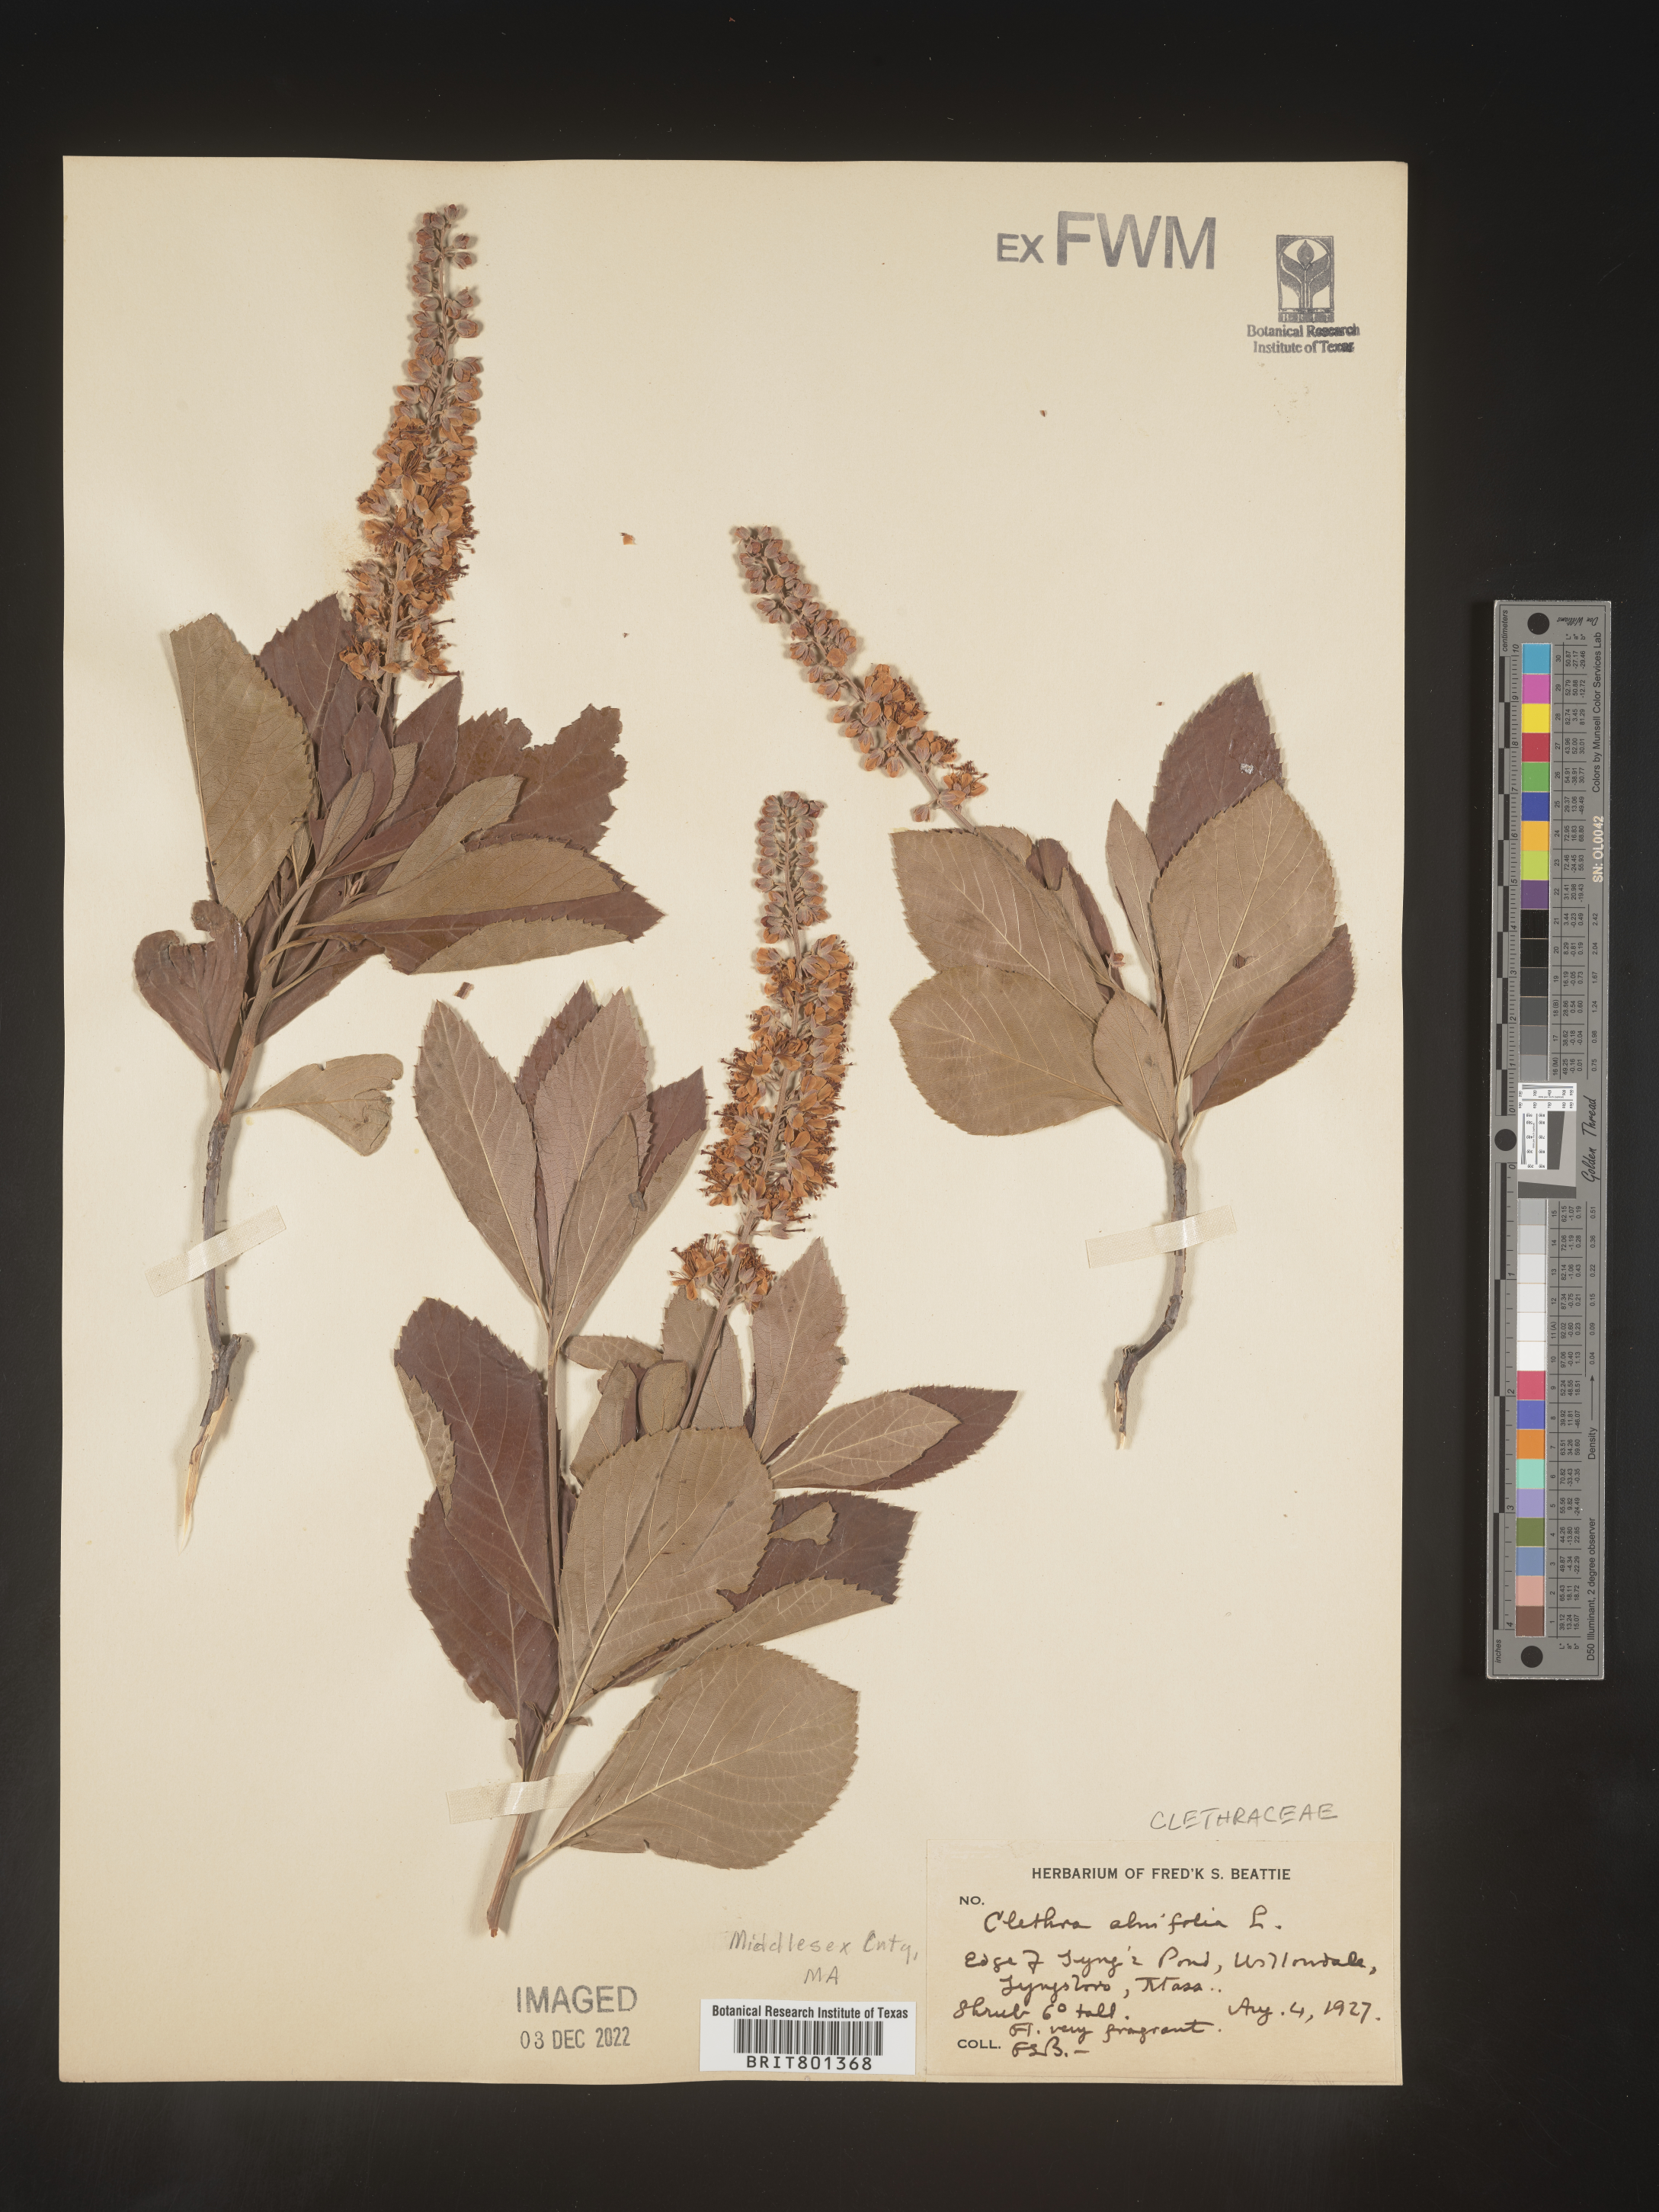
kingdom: Plantae
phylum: Tracheophyta
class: Magnoliopsida
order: Ericales
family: Clethraceae
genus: Clethra
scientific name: Clethra alnifolia
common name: Sweet pepperbush
